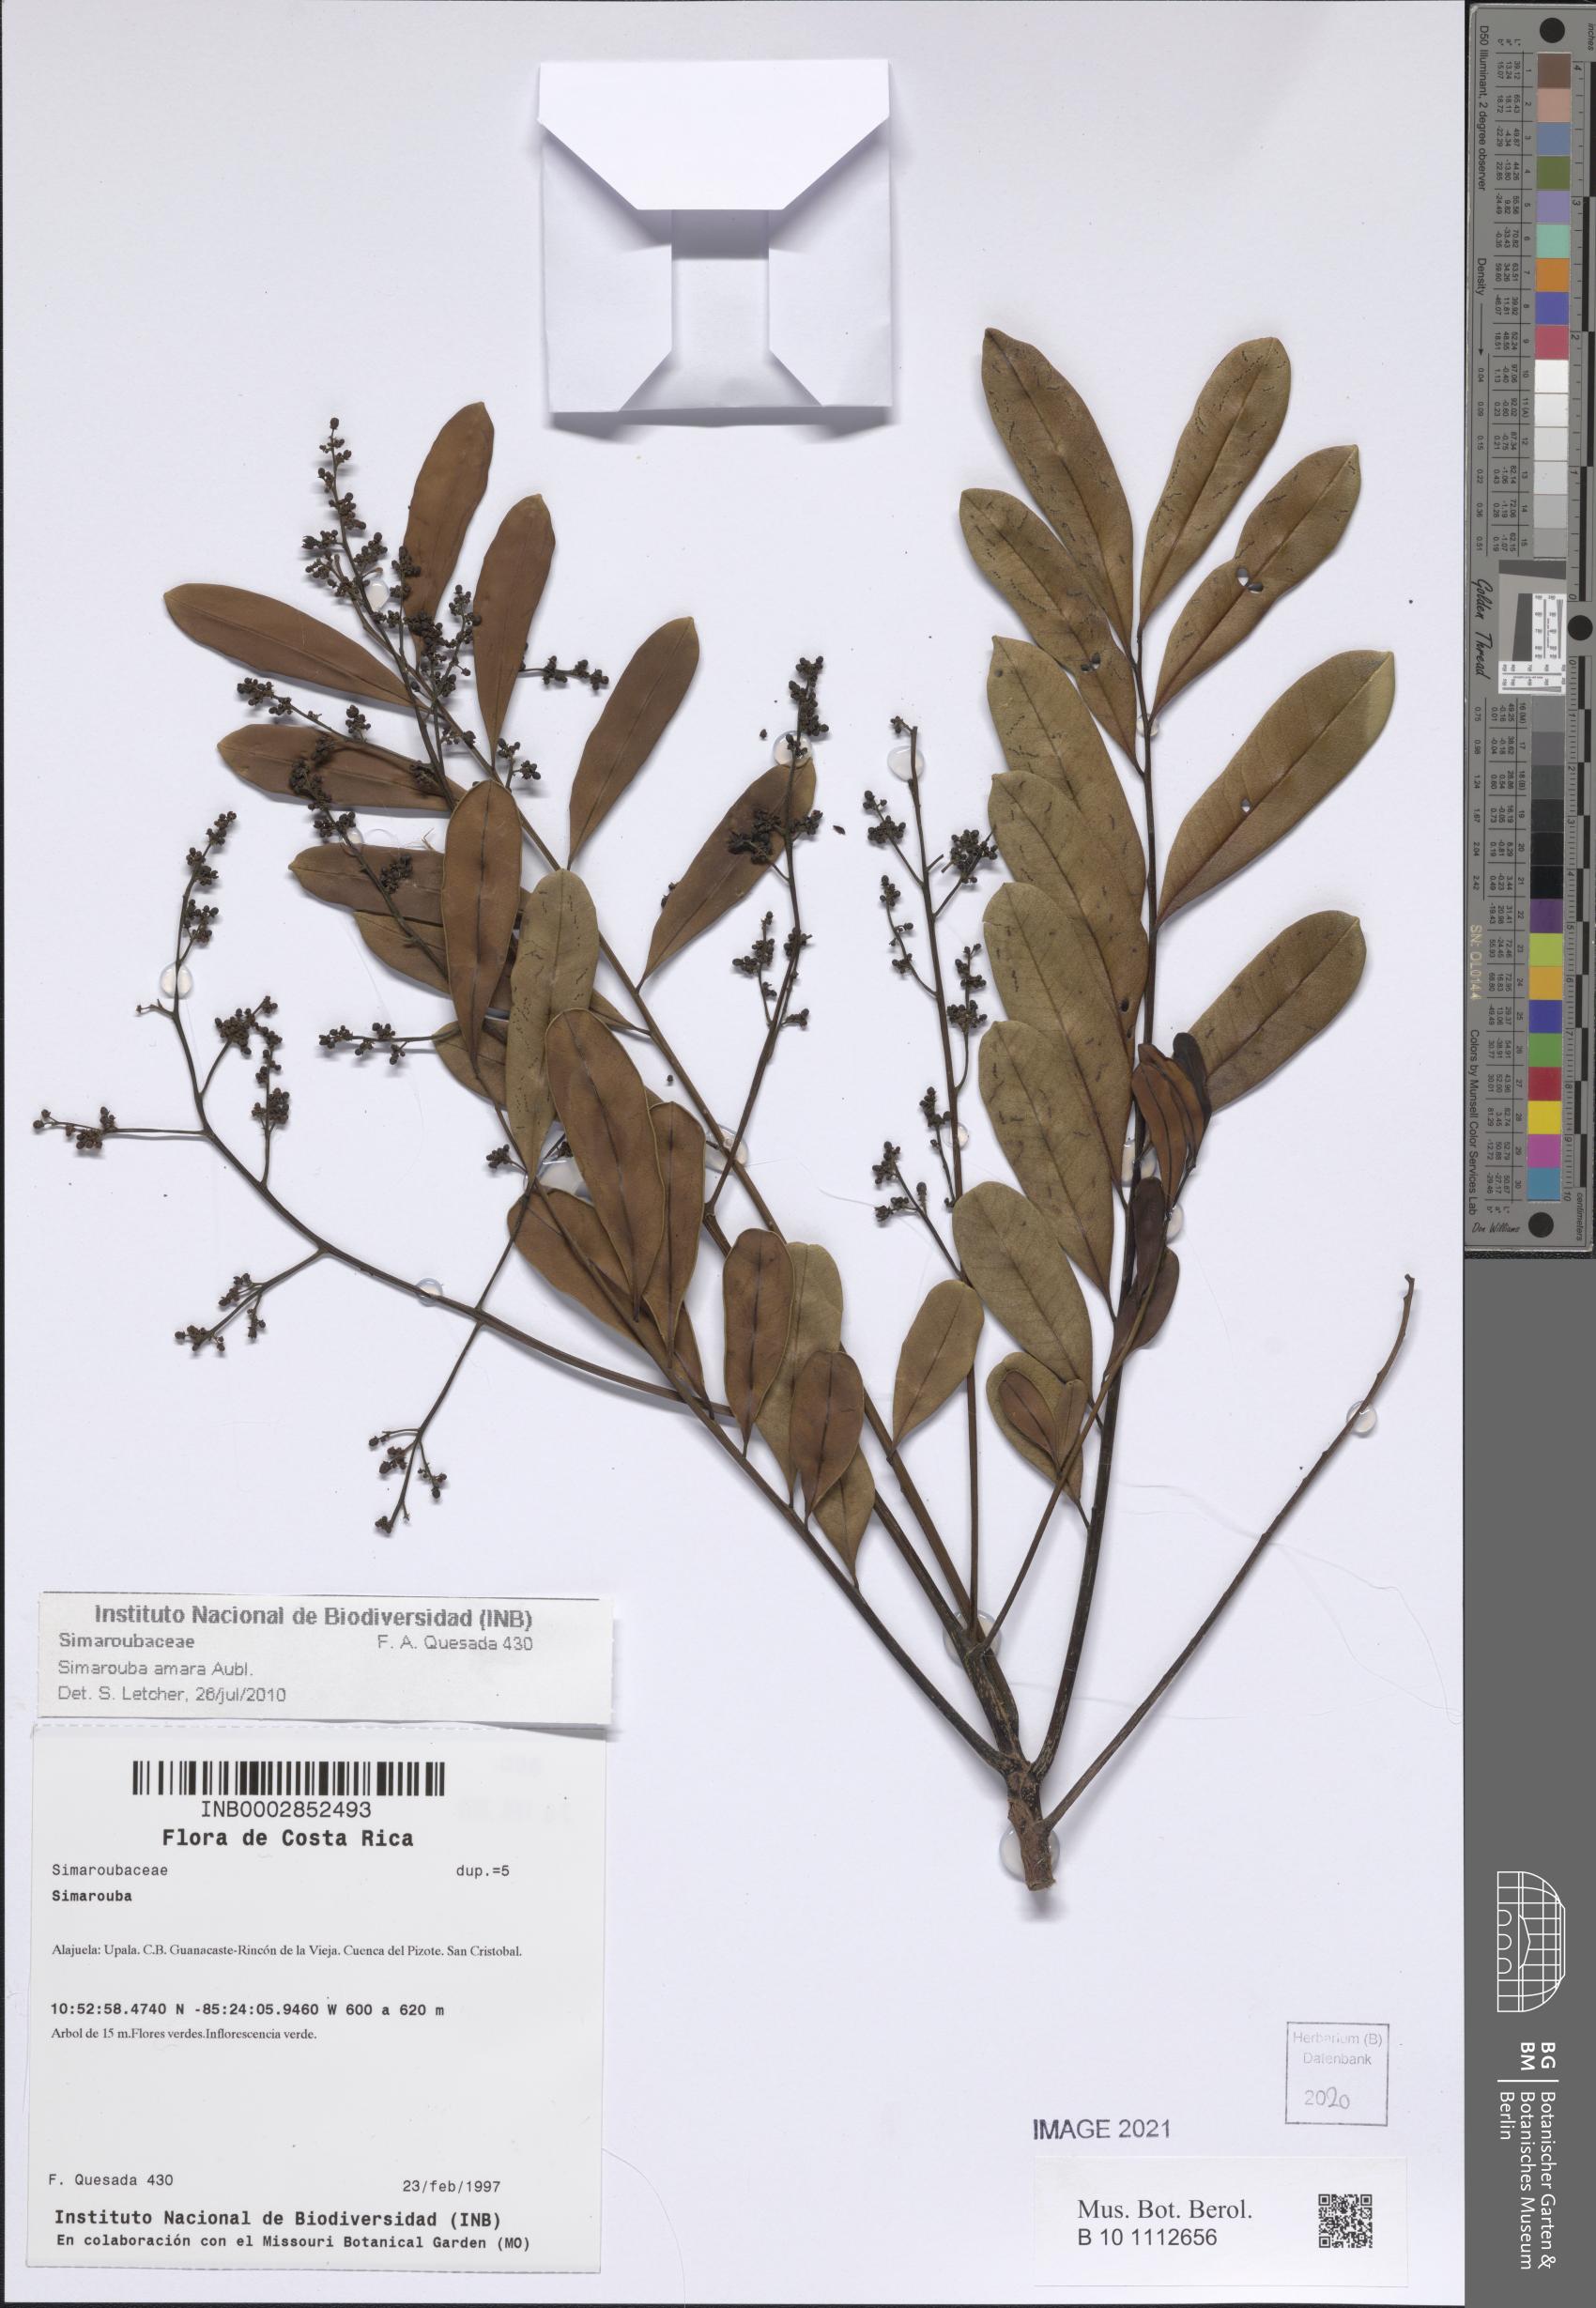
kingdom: Plantae
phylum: Tracheophyta
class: Magnoliopsida
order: Sapindales
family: Simaroubaceae
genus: Simarouba
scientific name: Simarouba amara
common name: Bitterwood
